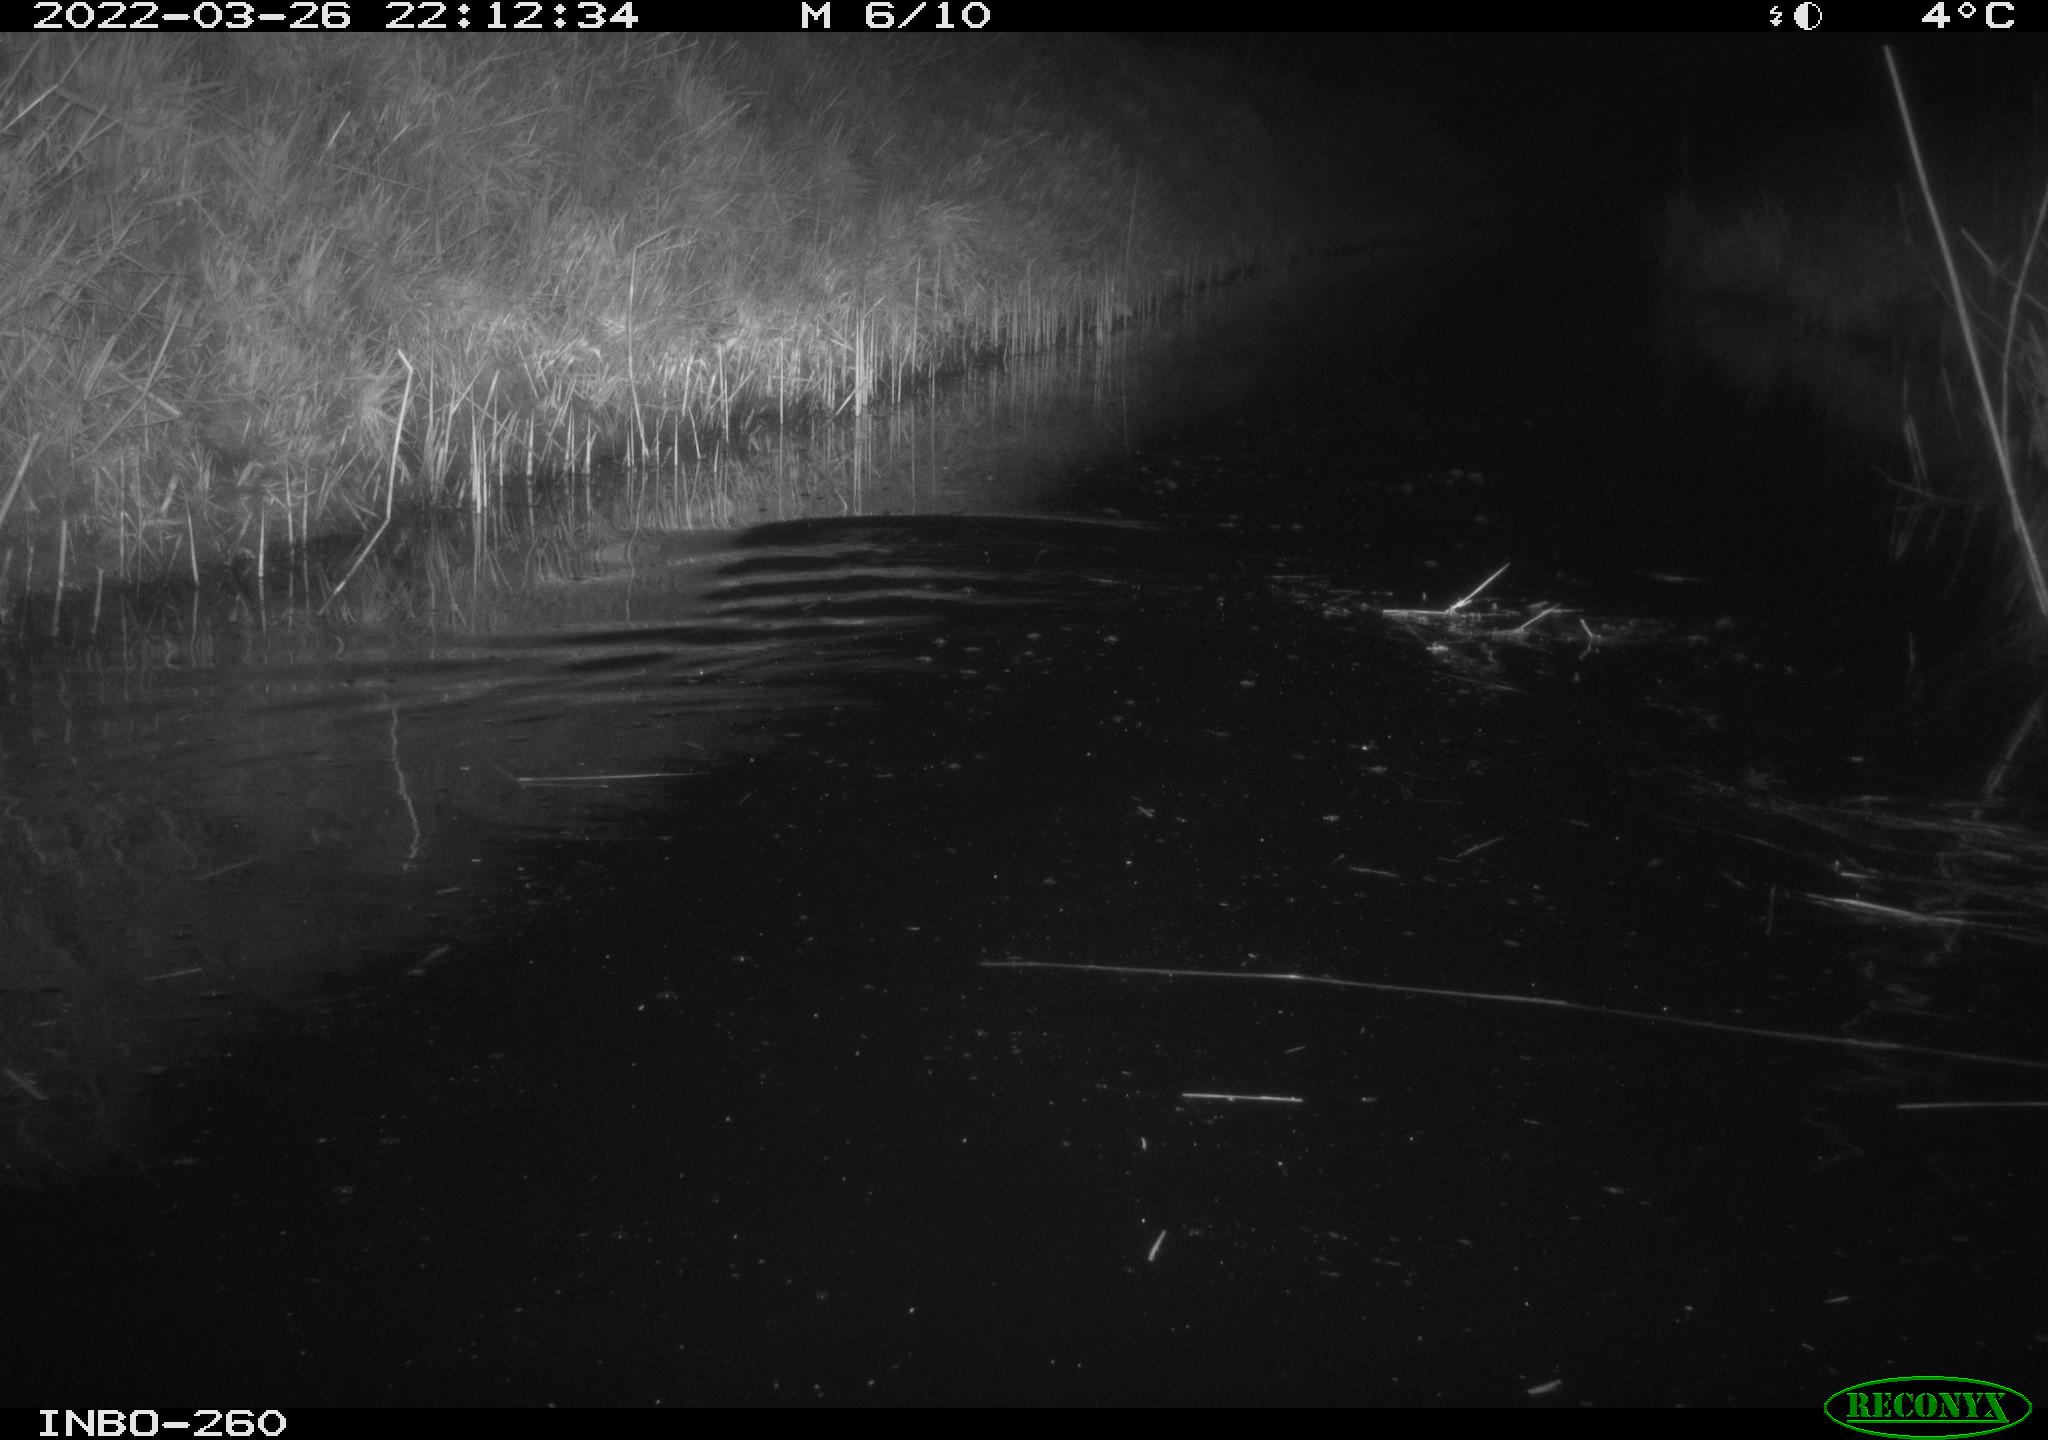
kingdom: Animalia
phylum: Chordata
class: Mammalia
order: Rodentia
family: Cricetidae
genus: Ondatra
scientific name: Ondatra zibethicus
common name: Muskrat
